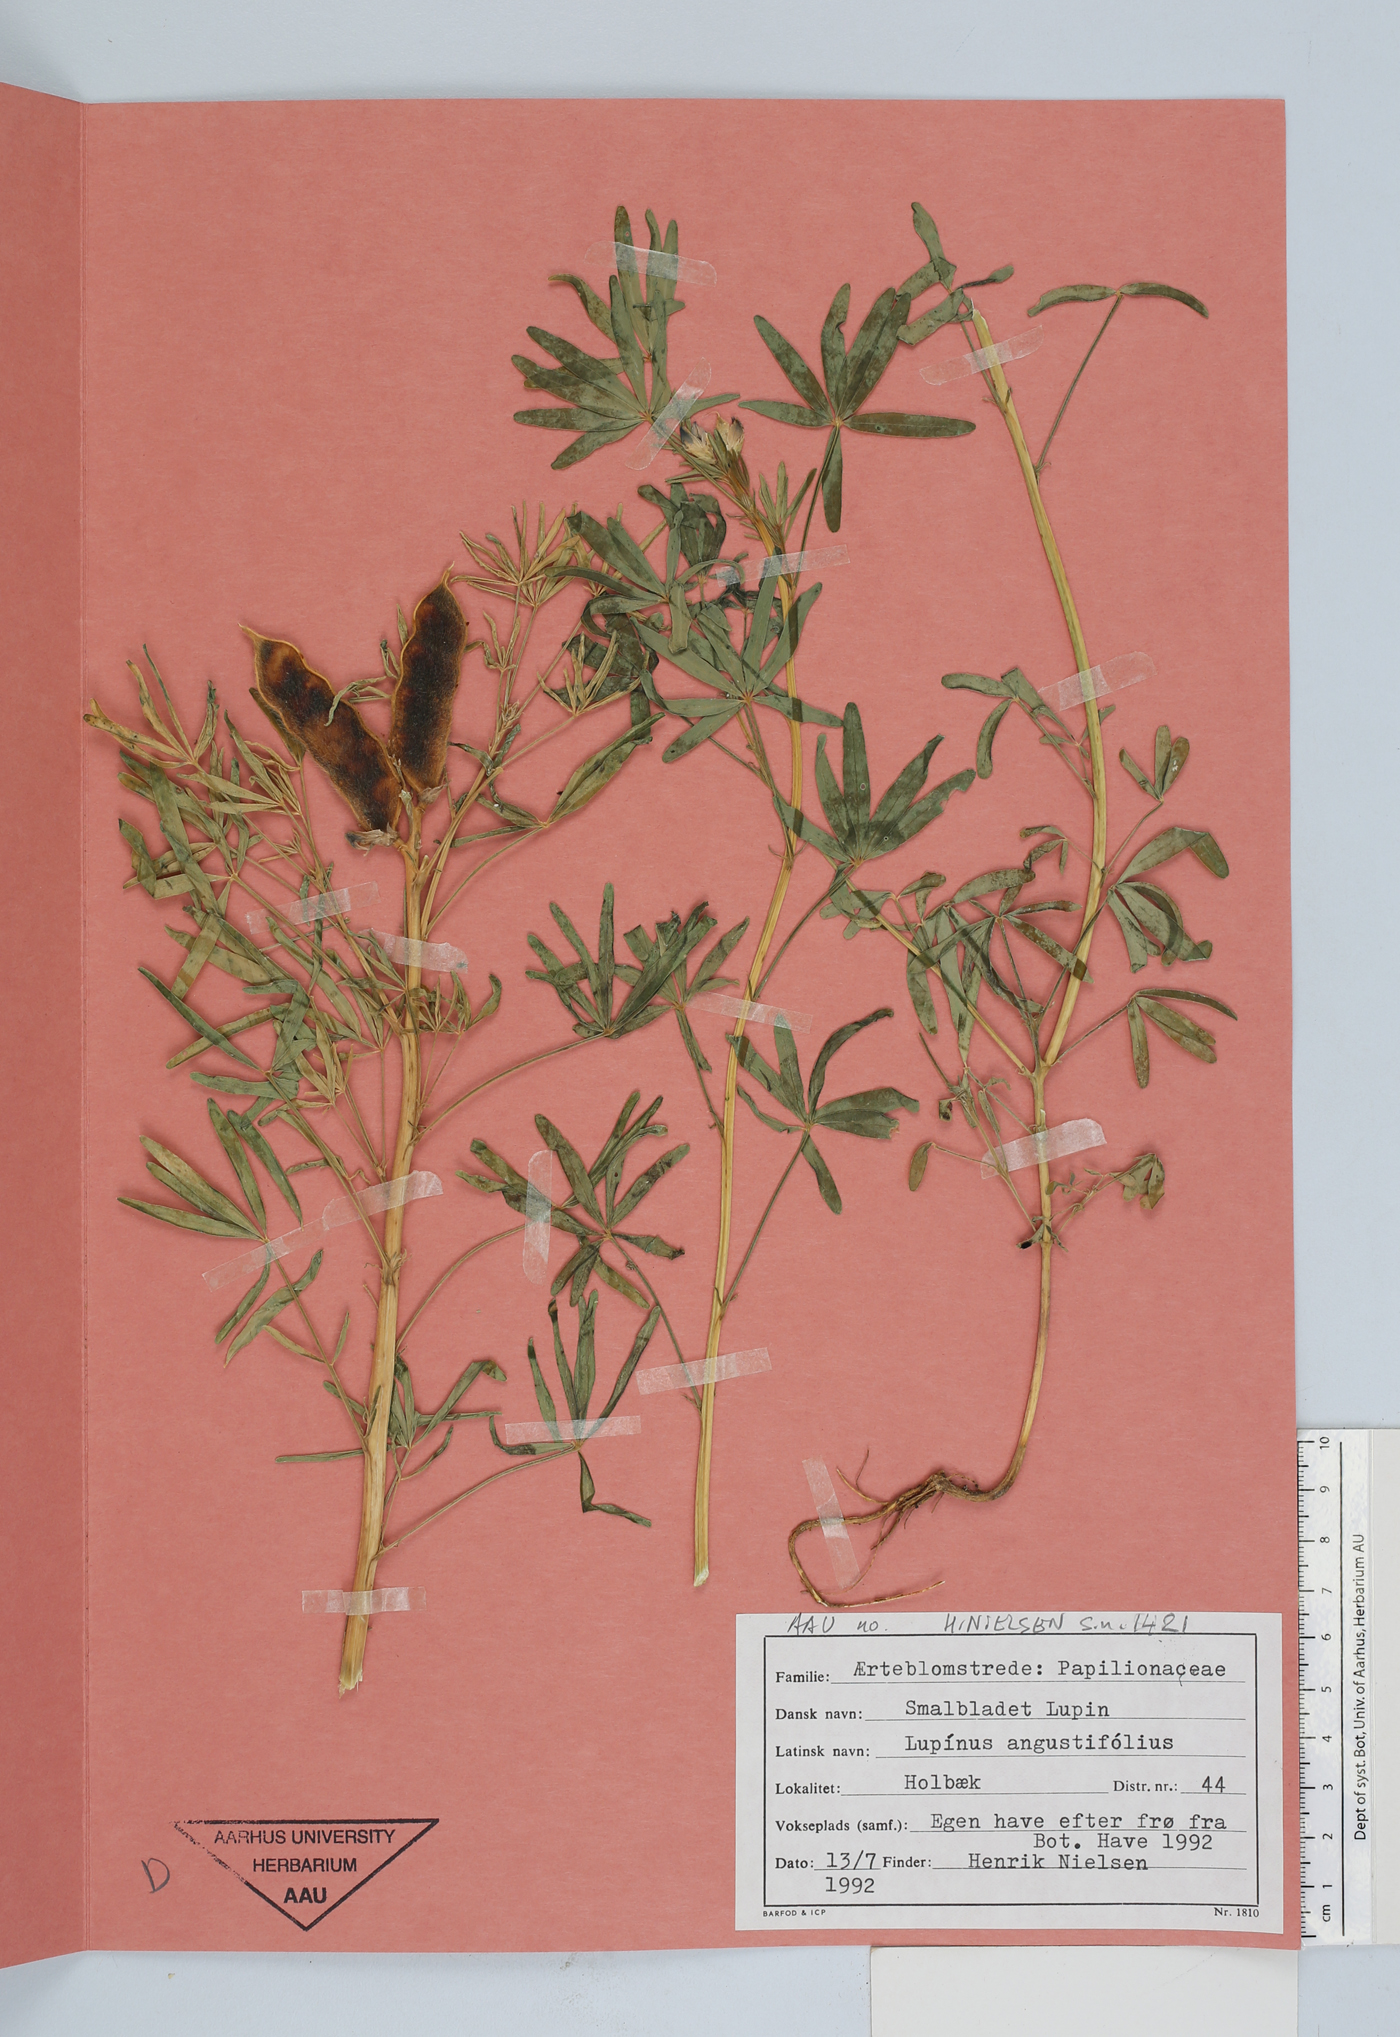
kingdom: Plantae
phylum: Tracheophyta
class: Magnoliopsida
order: Fabales
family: Fabaceae
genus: Zornia
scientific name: Zornia diphylla
